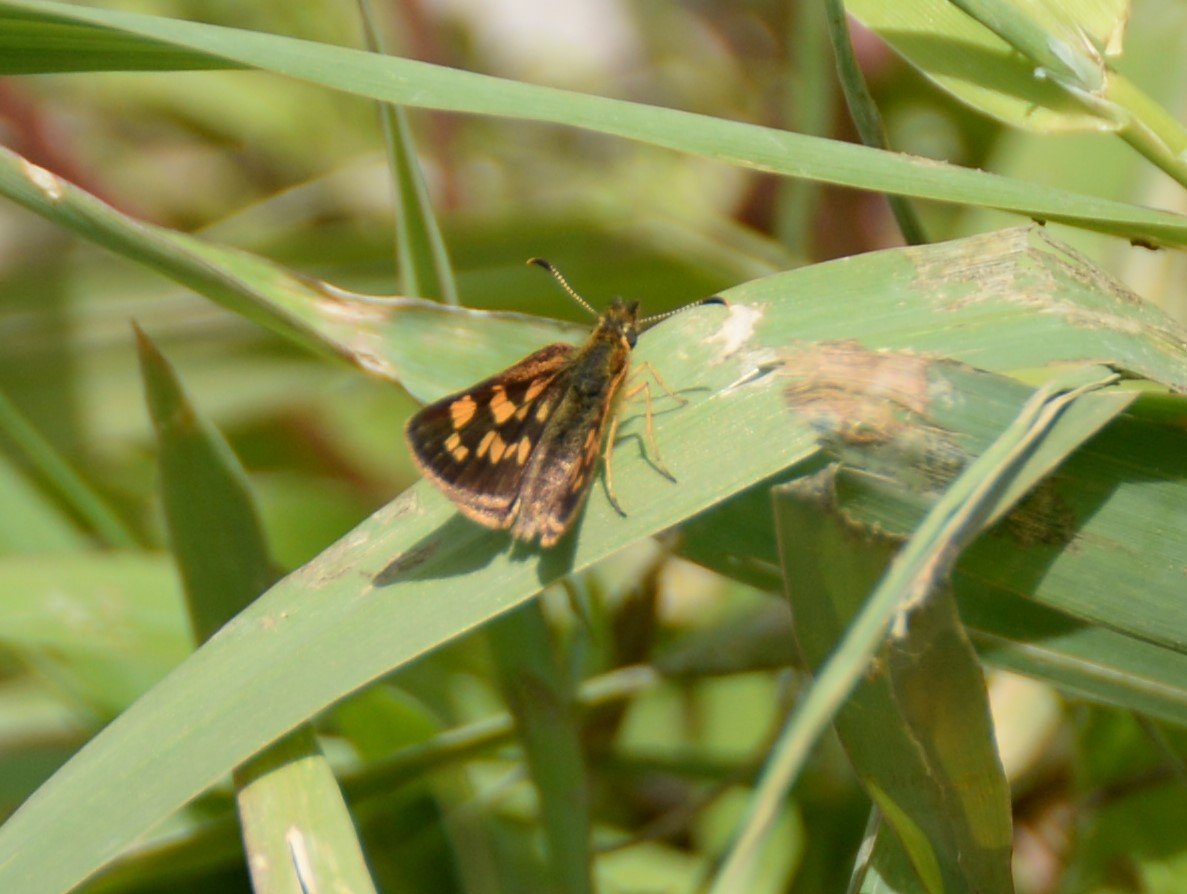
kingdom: Animalia
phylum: Arthropoda
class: Insecta
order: Lepidoptera
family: Hesperiidae
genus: Carterocephalus
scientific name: Carterocephalus palaemon
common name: Chequered Skipper
